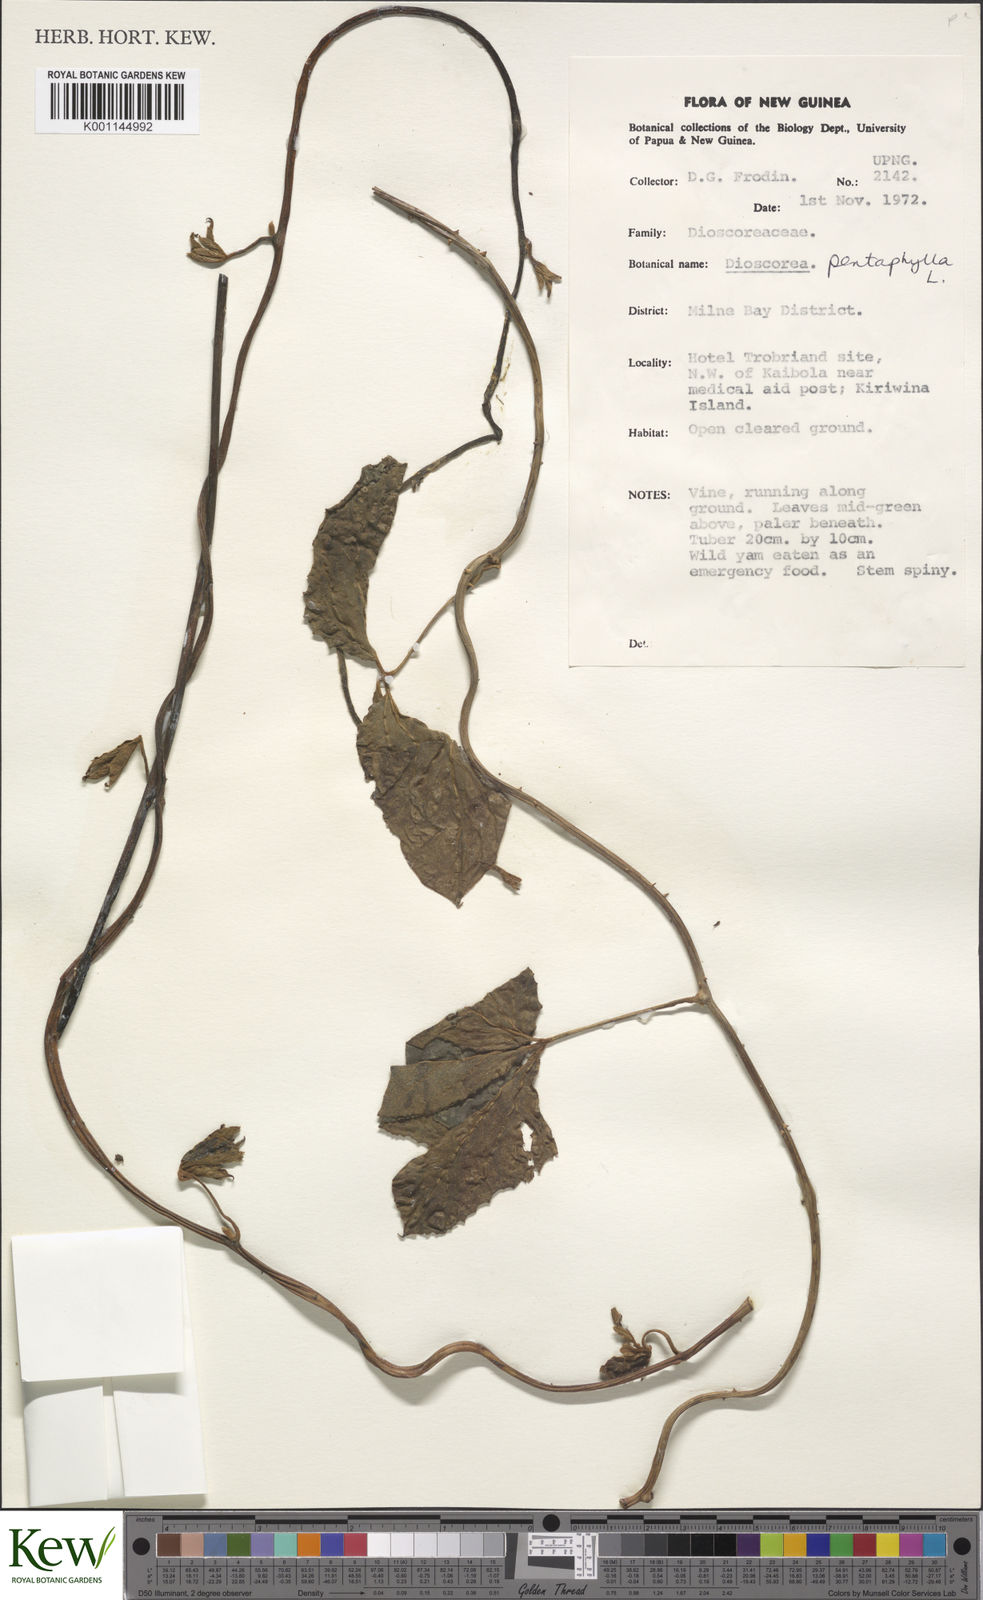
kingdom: Plantae
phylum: Tracheophyta
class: Liliopsida
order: Dioscoreales
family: Dioscoreaceae
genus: Dioscorea
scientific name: Dioscorea pentaphylla
